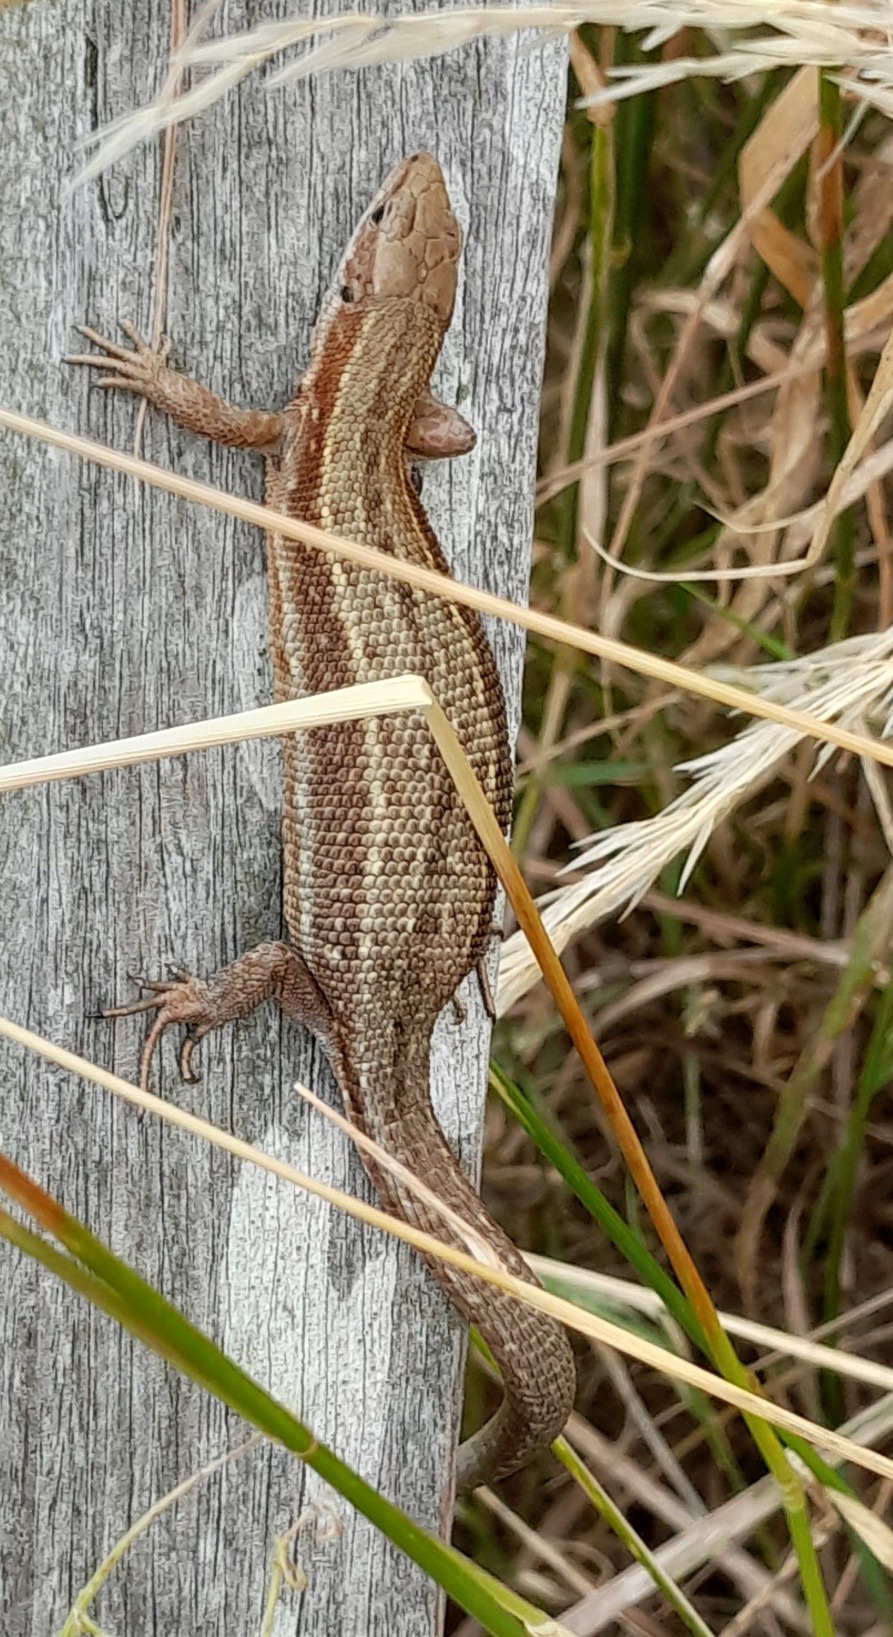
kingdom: Animalia
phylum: Chordata
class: Squamata
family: Lacertidae
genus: Zootoca
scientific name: Zootoca vivipara
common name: Skovfirben
